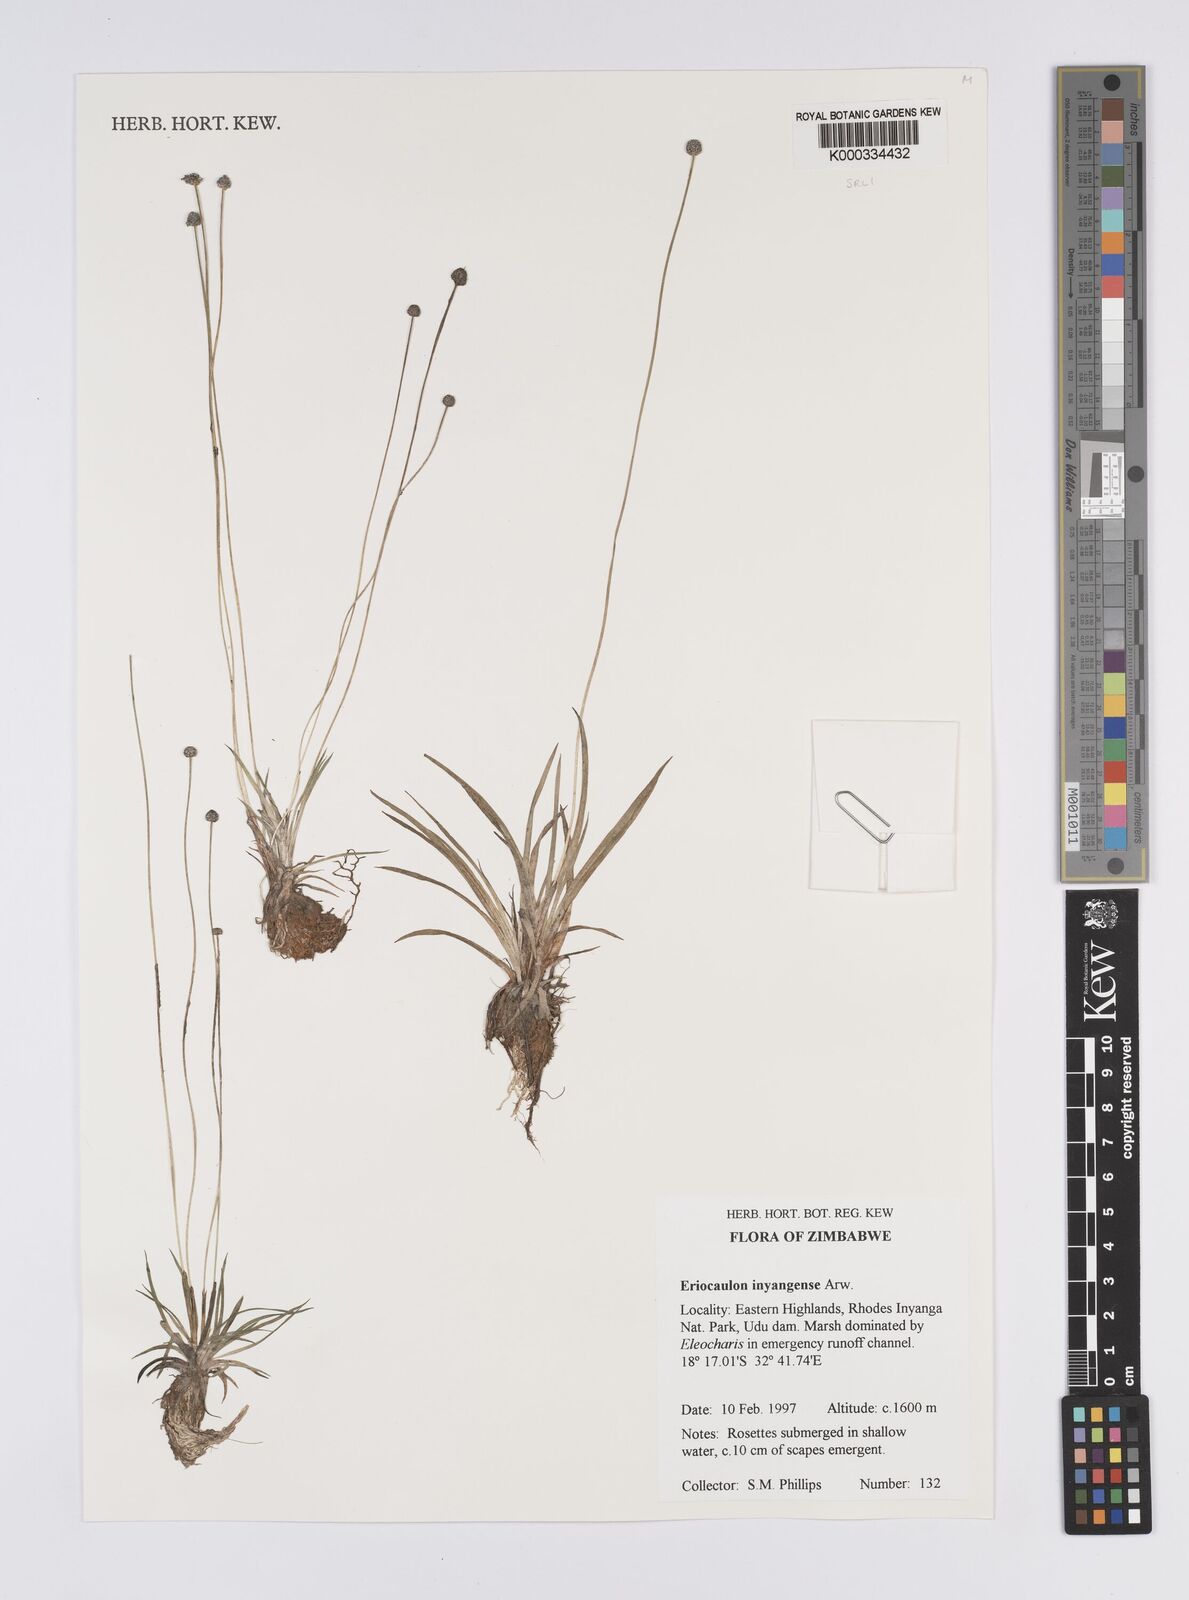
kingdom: Plantae
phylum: Tracheophyta
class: Liliopsida
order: Poales
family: Eriocaulaceae
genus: Eriocaulon
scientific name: Eriocaulon inyangense
